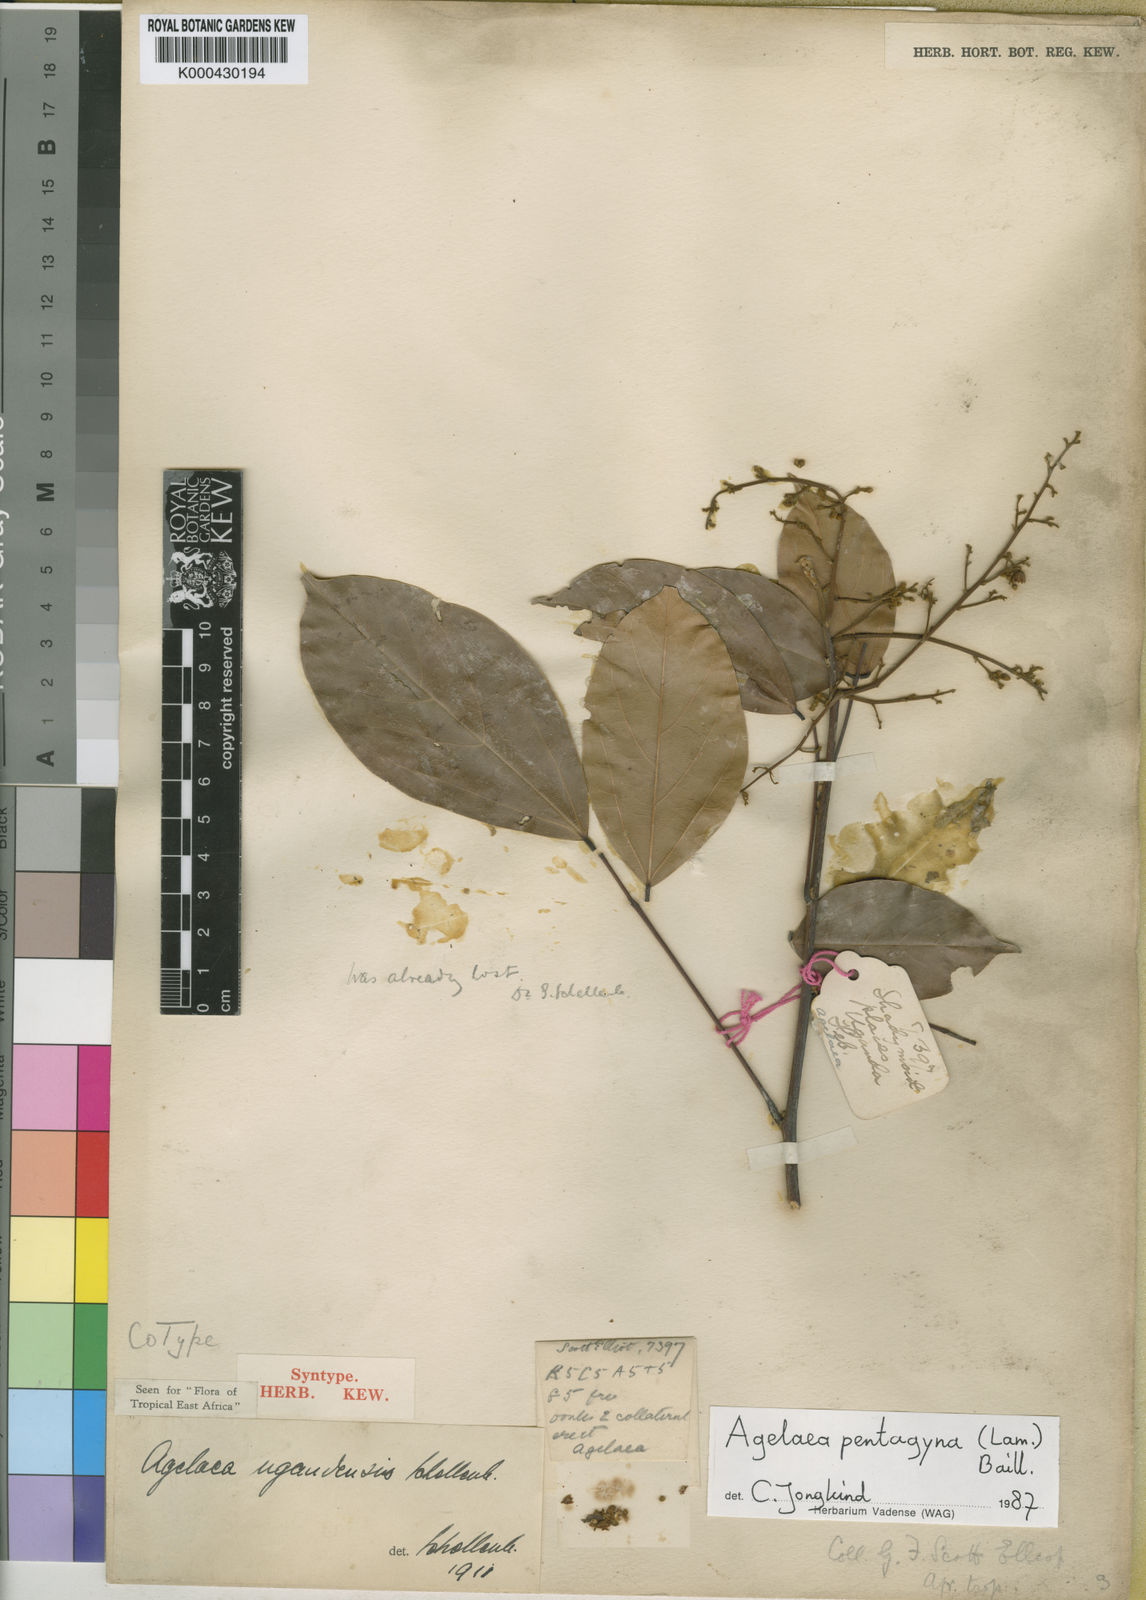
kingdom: Plantae
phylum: Tracheophyta
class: Magnoliopsida
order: Oxalidales
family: Connaraceae
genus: Agelaea
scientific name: Agelaea pentagyna
